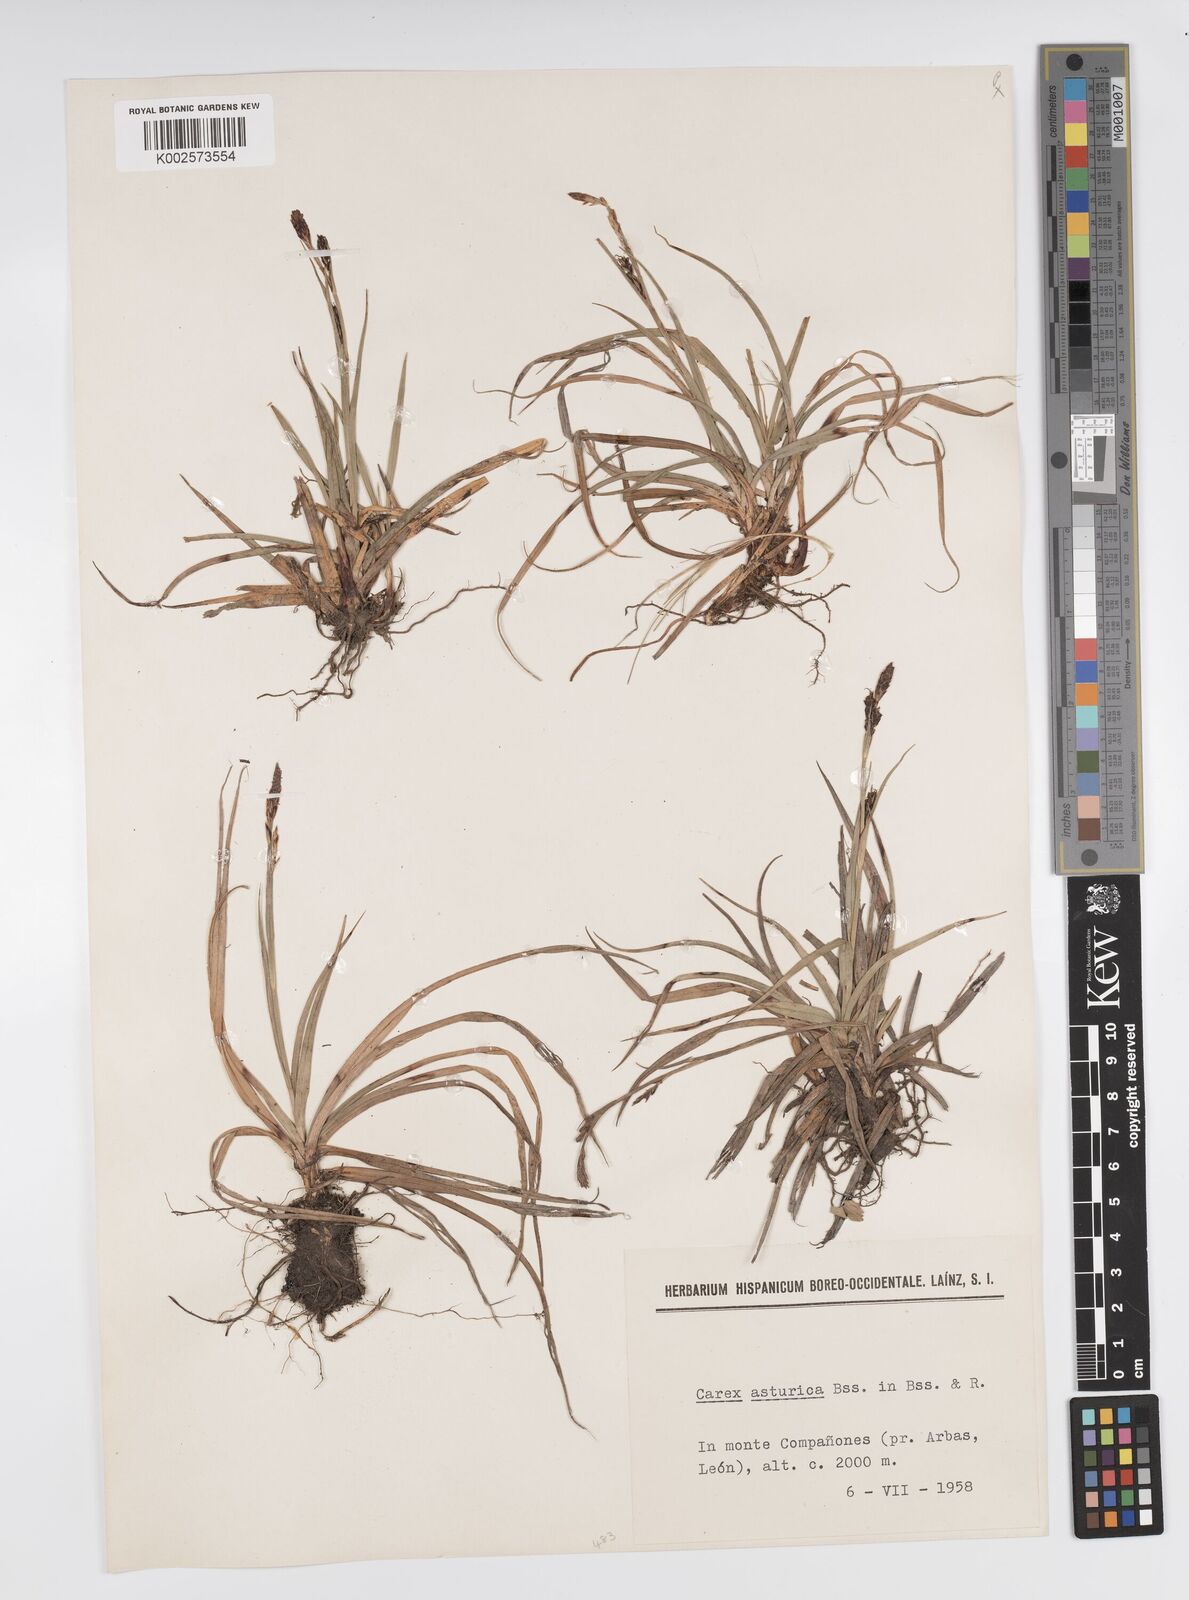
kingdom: Plantae
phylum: Tracheophyta
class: Liliopsida
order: Poales
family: Cyperaceae
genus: Carex
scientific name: Carex asturica
